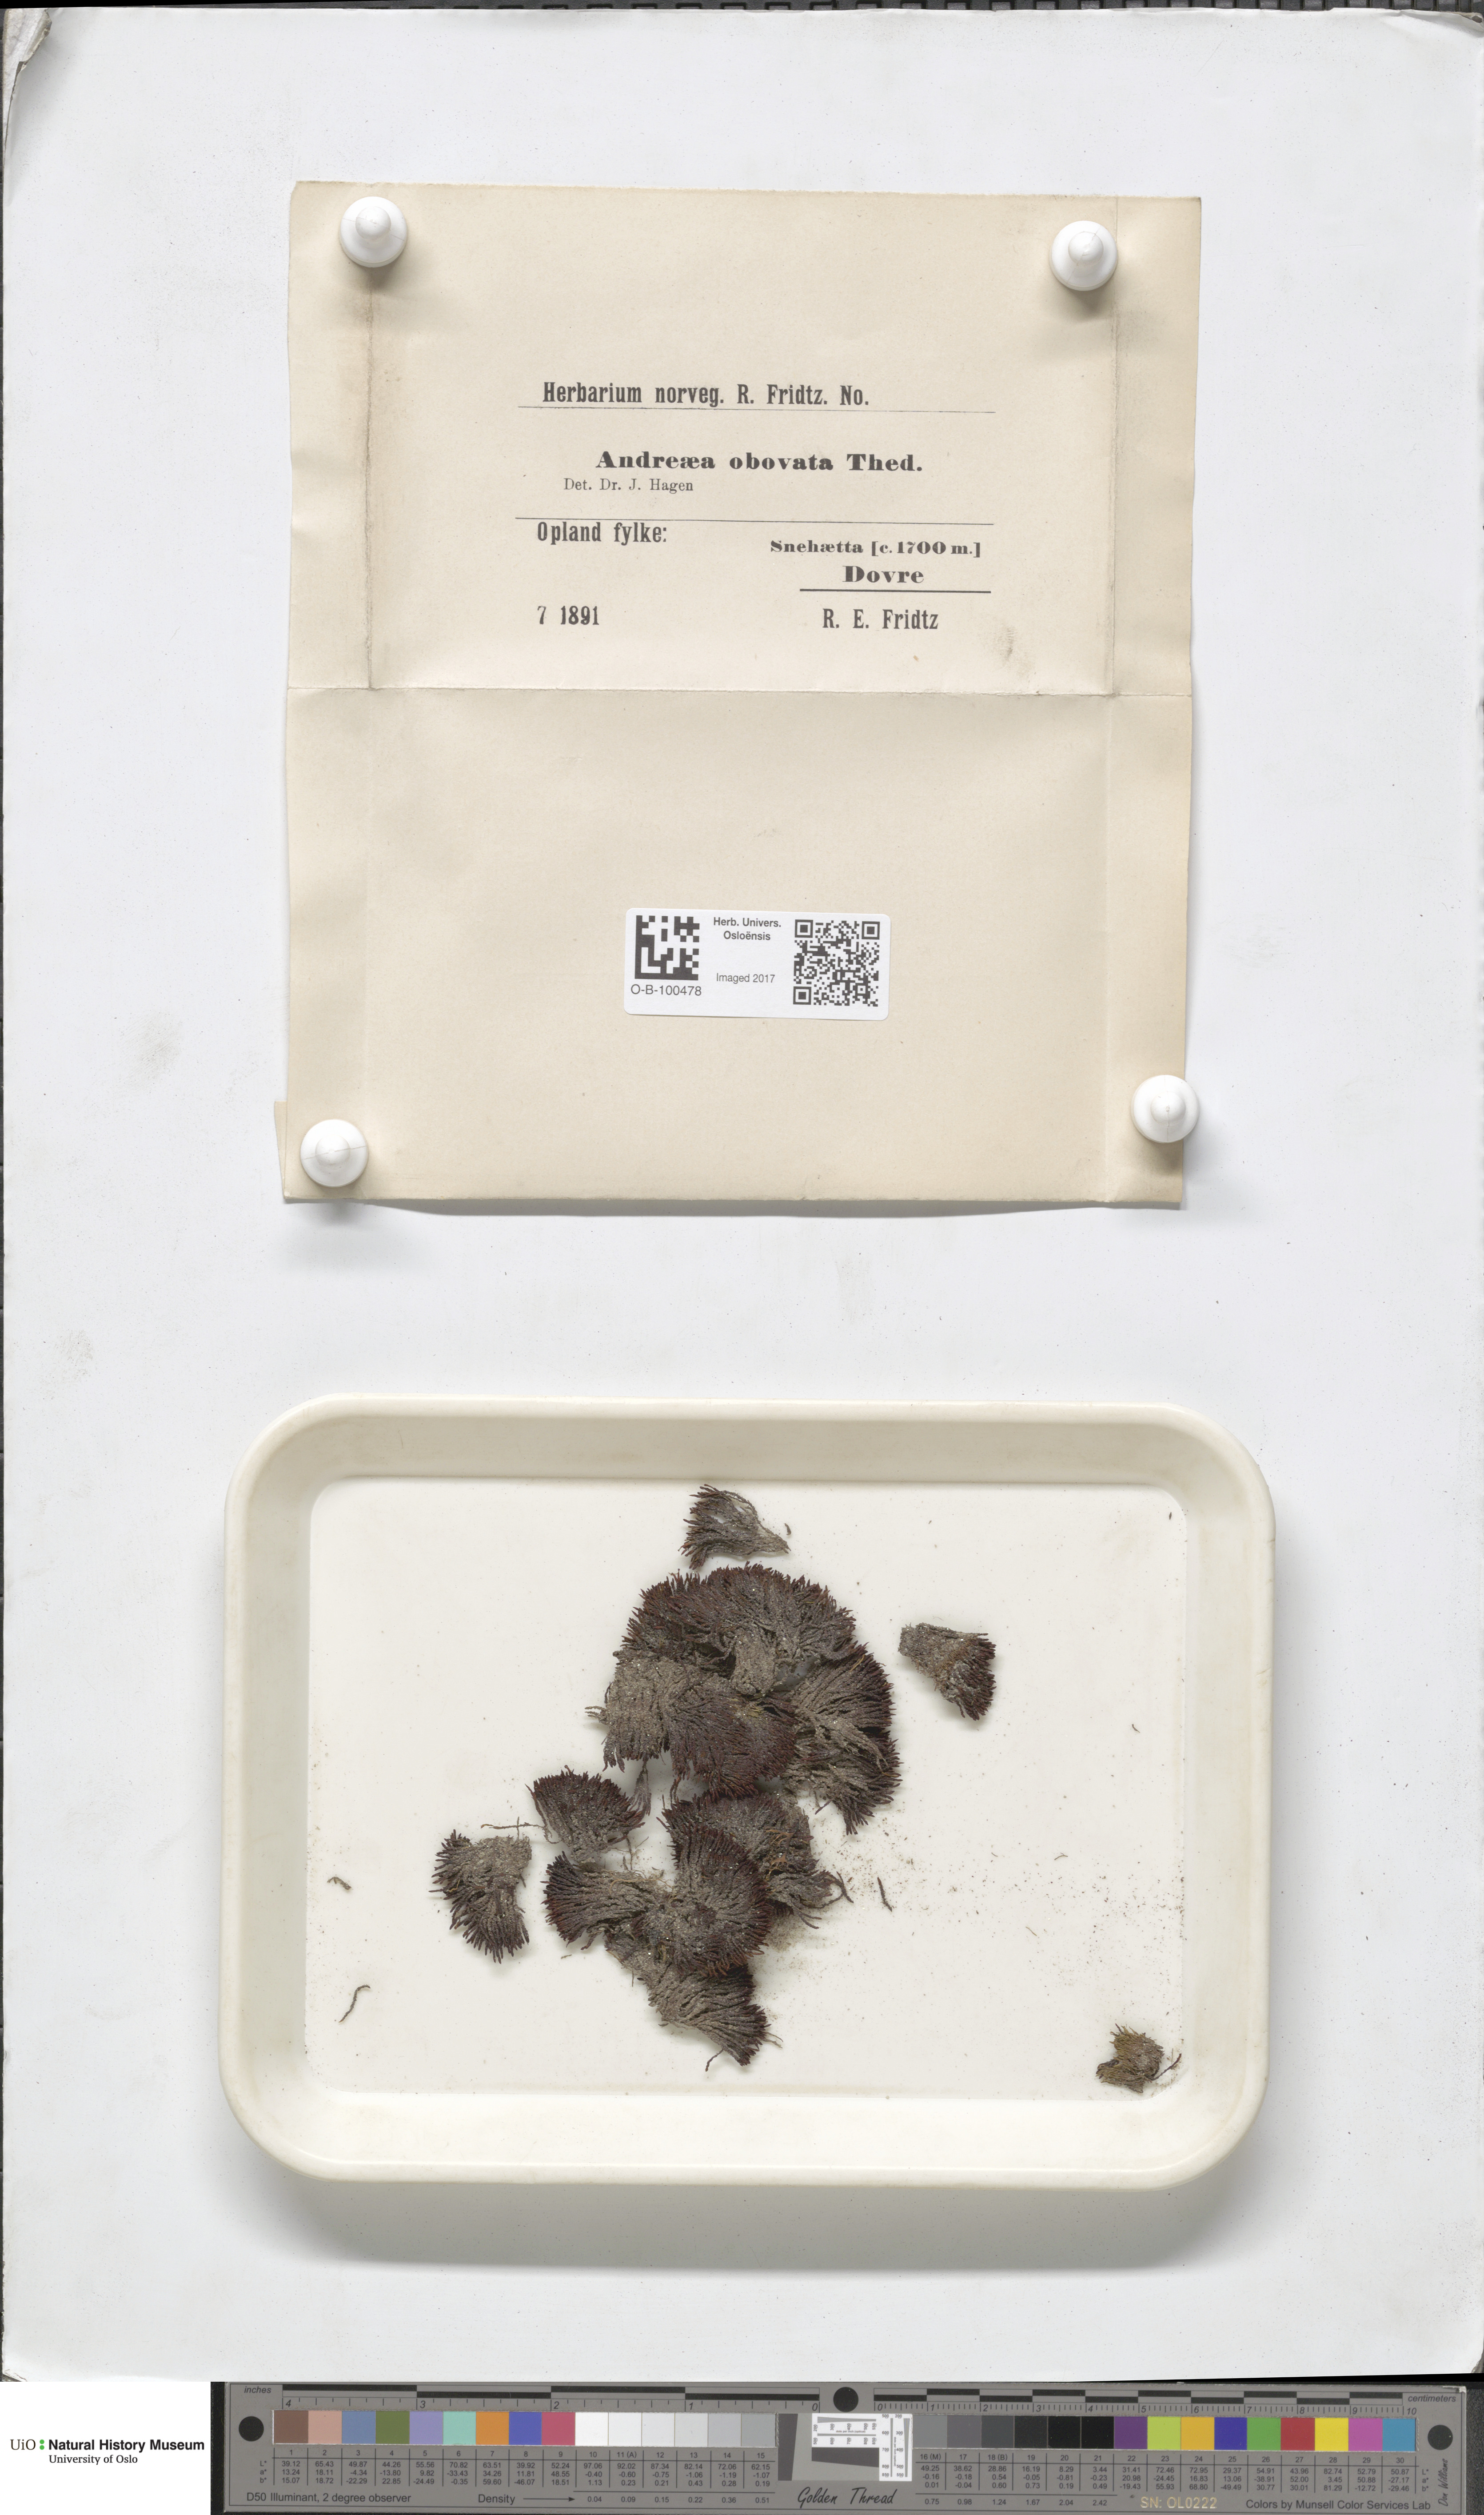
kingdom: Plantae
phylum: Bryophyta
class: Andreaeopsida
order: Andreaeales
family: Andreaeaceae
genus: Andreaea
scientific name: Andreaea alpina
